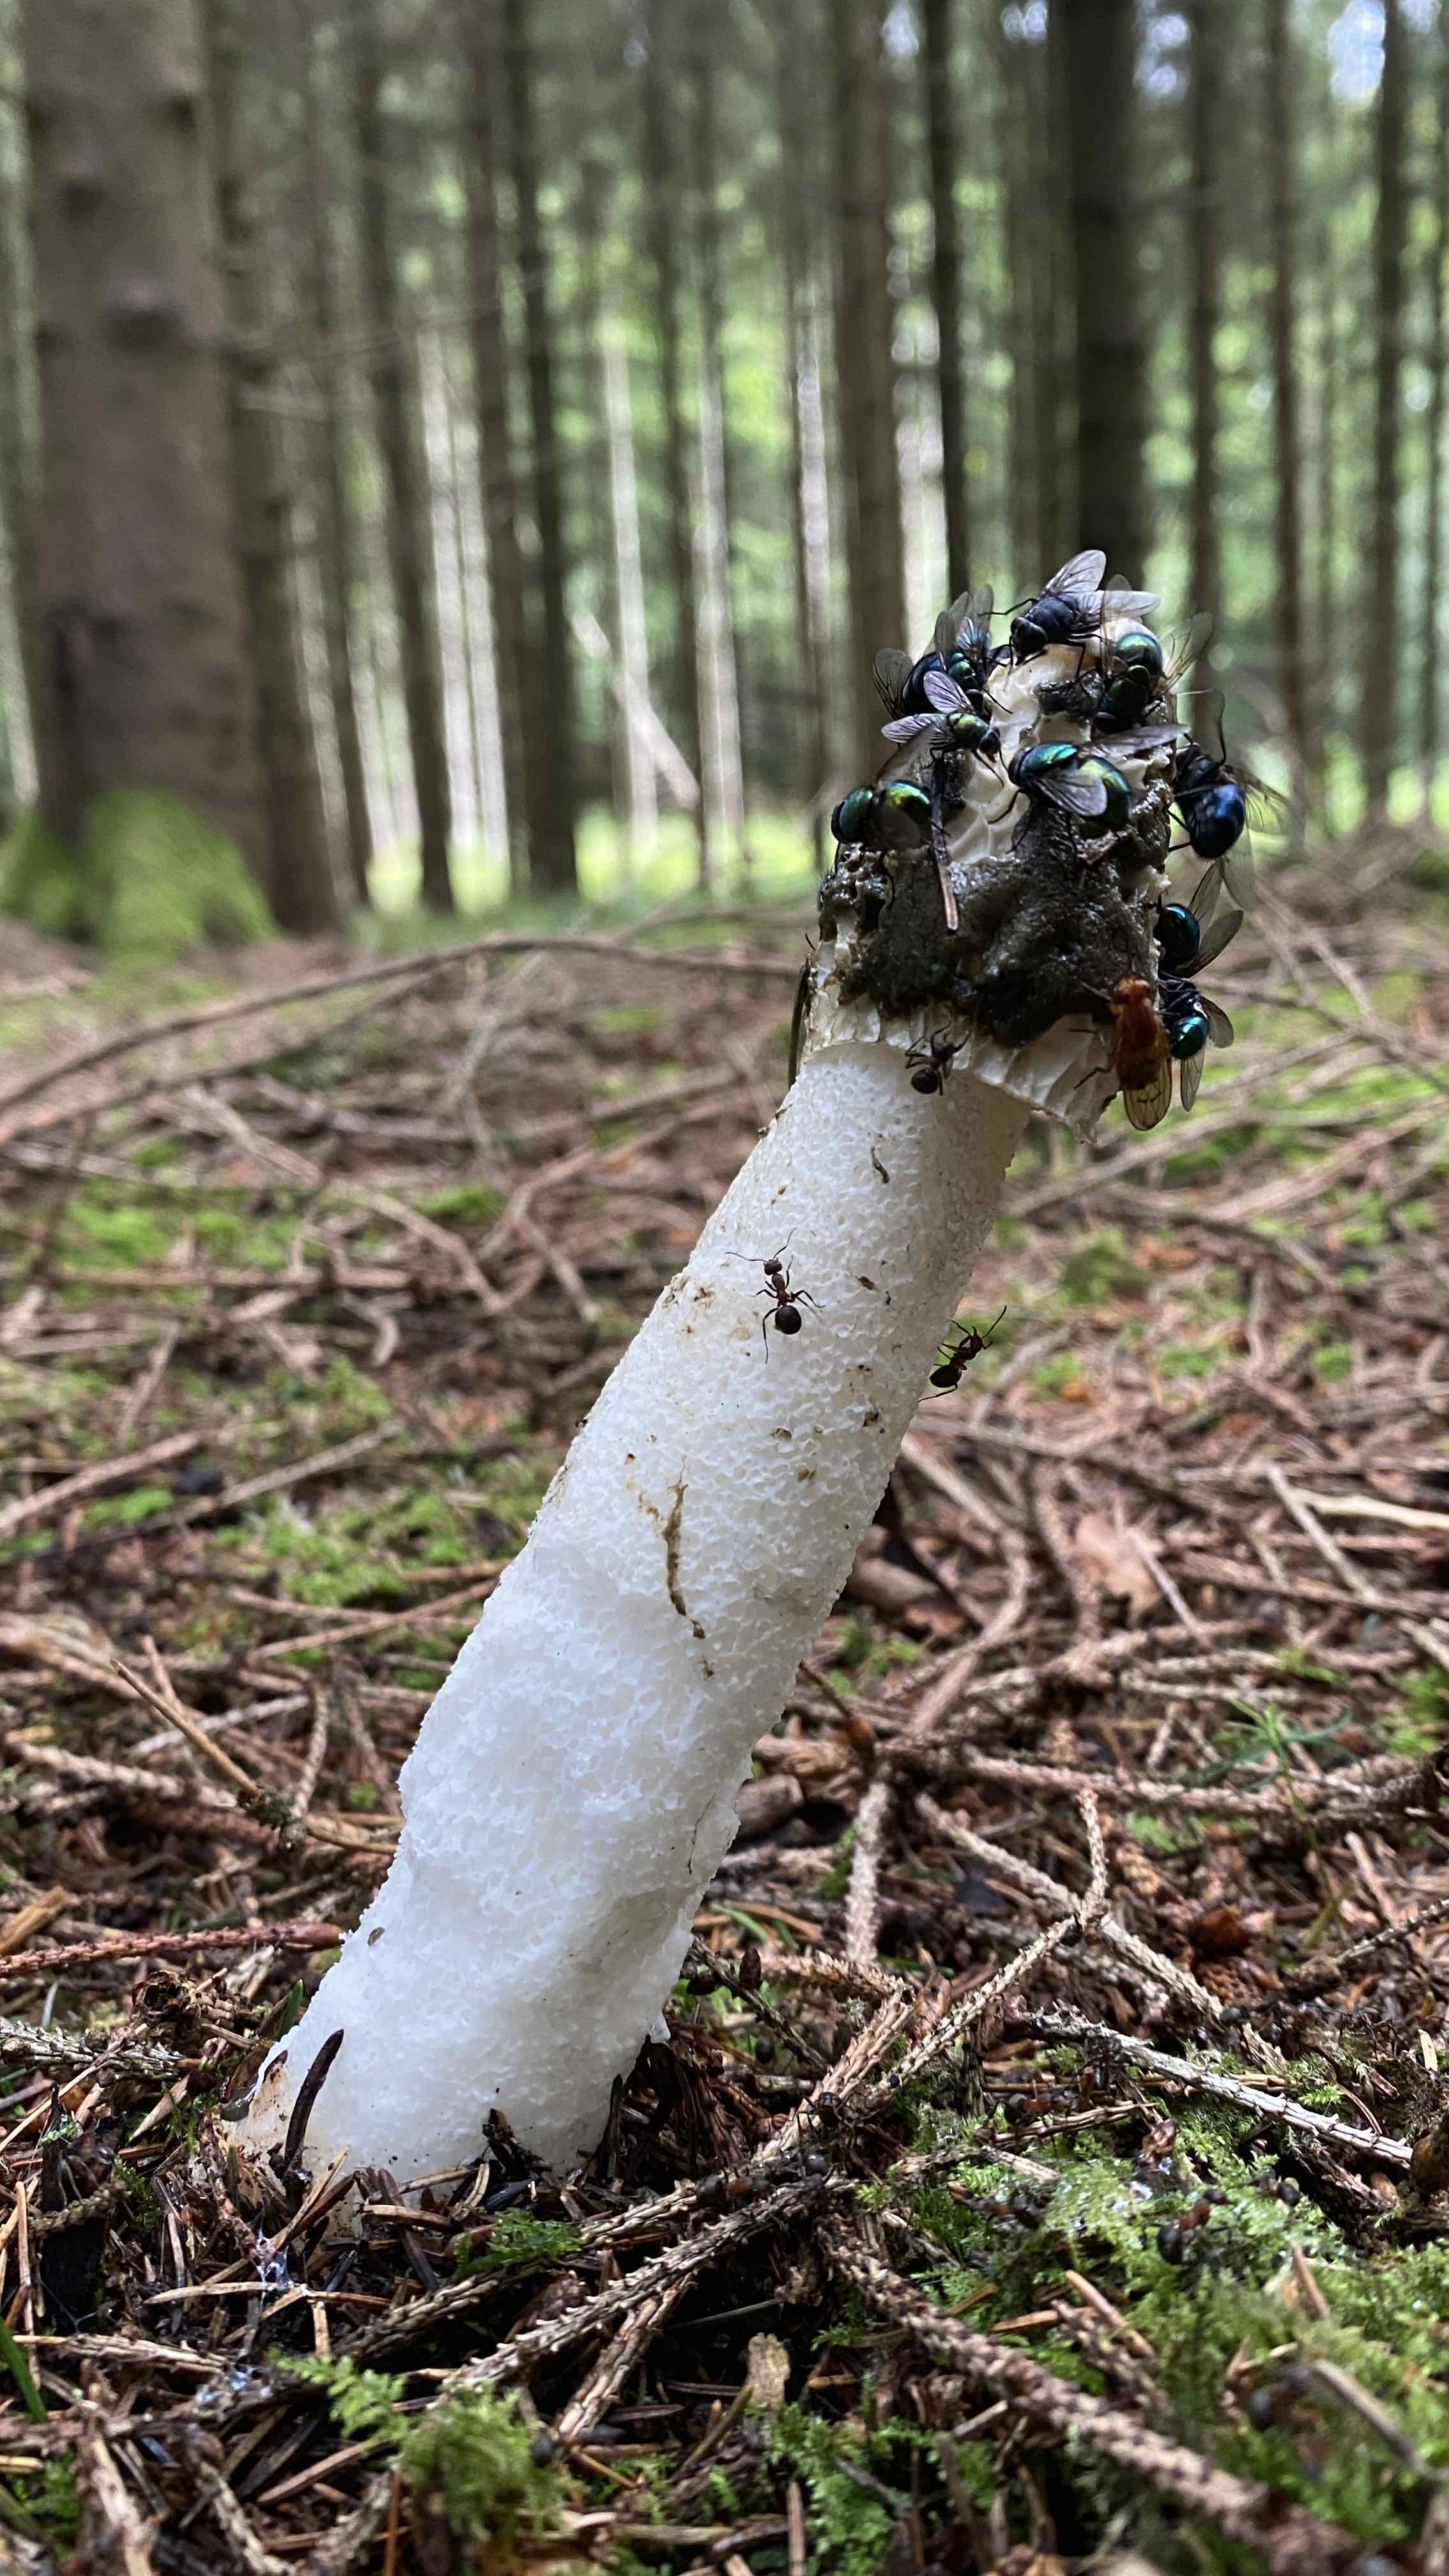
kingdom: Fungi
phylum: Basidiomycota
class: Agaricomycetes
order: Phallales
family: Phallaceae
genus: Phallus
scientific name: Phallus impudicus
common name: almindelig stinksvamp
